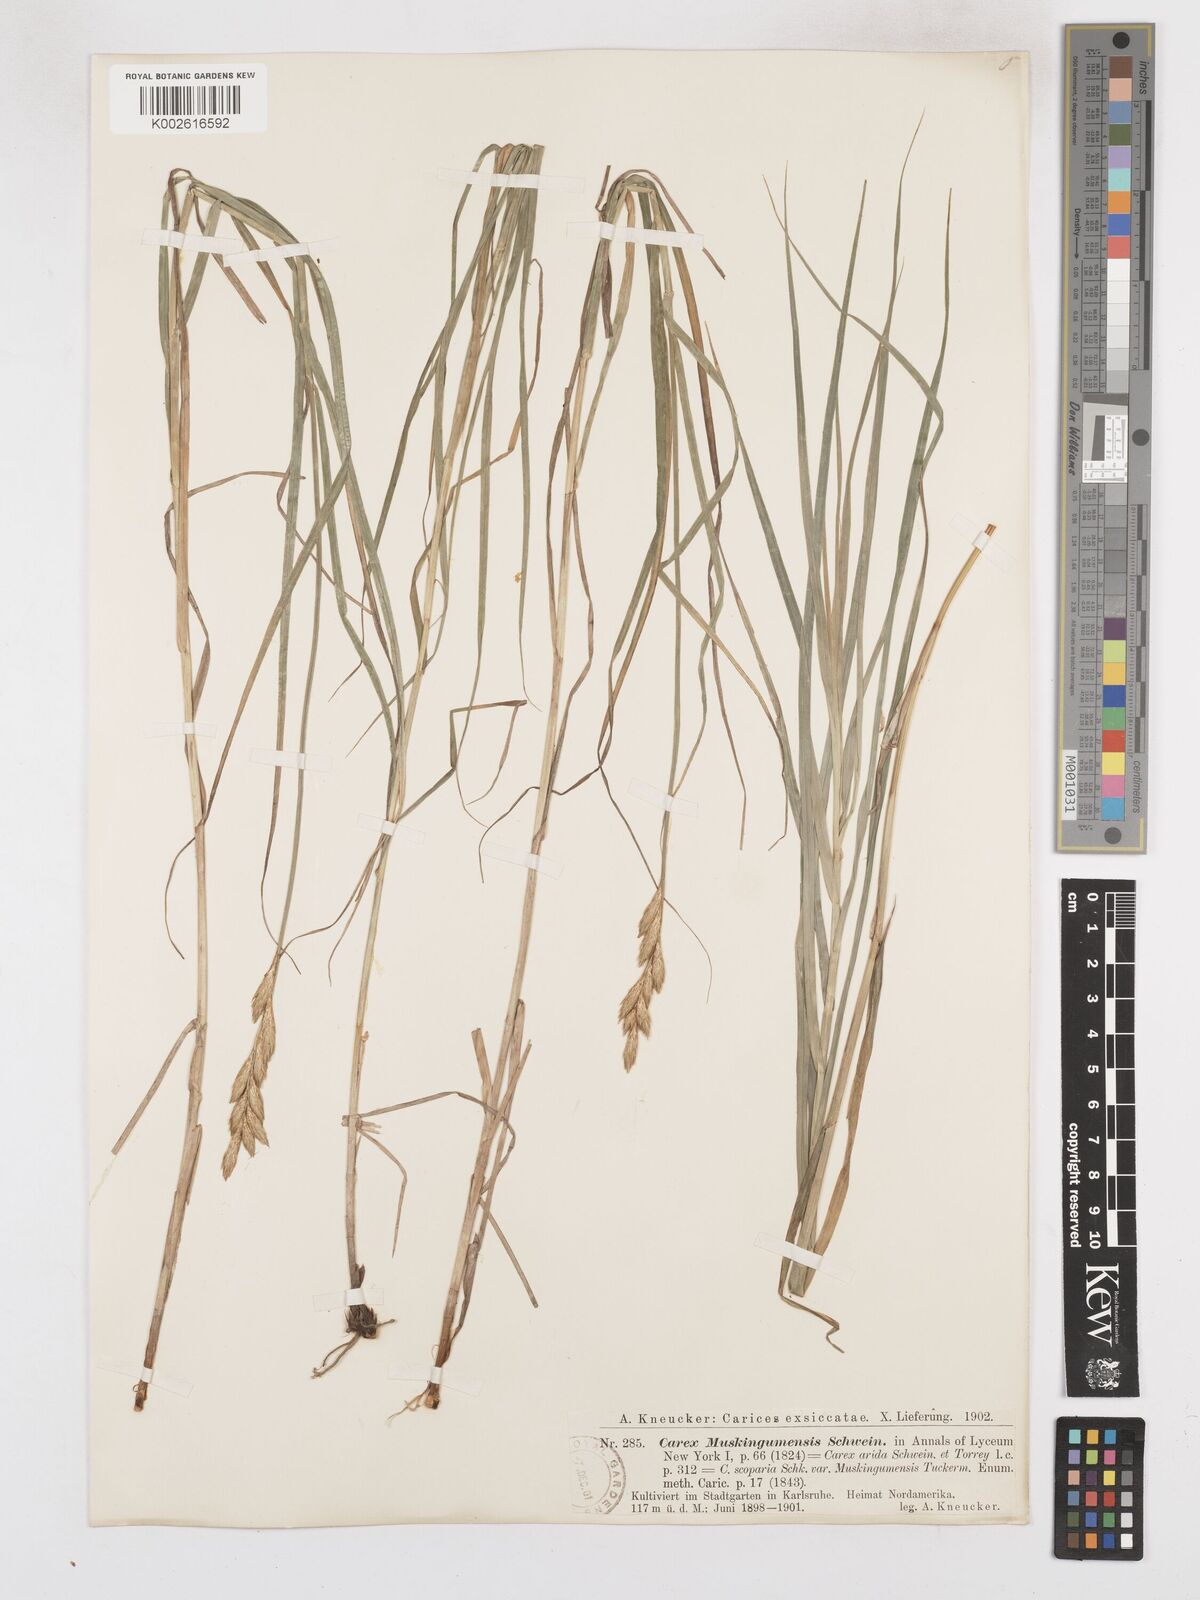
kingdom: Plantae
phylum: Tracheophyta
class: Liliopsida
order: Poales
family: Cyperaceae
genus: Carex
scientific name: Carex muskingumensis
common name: Muskingum sedge
